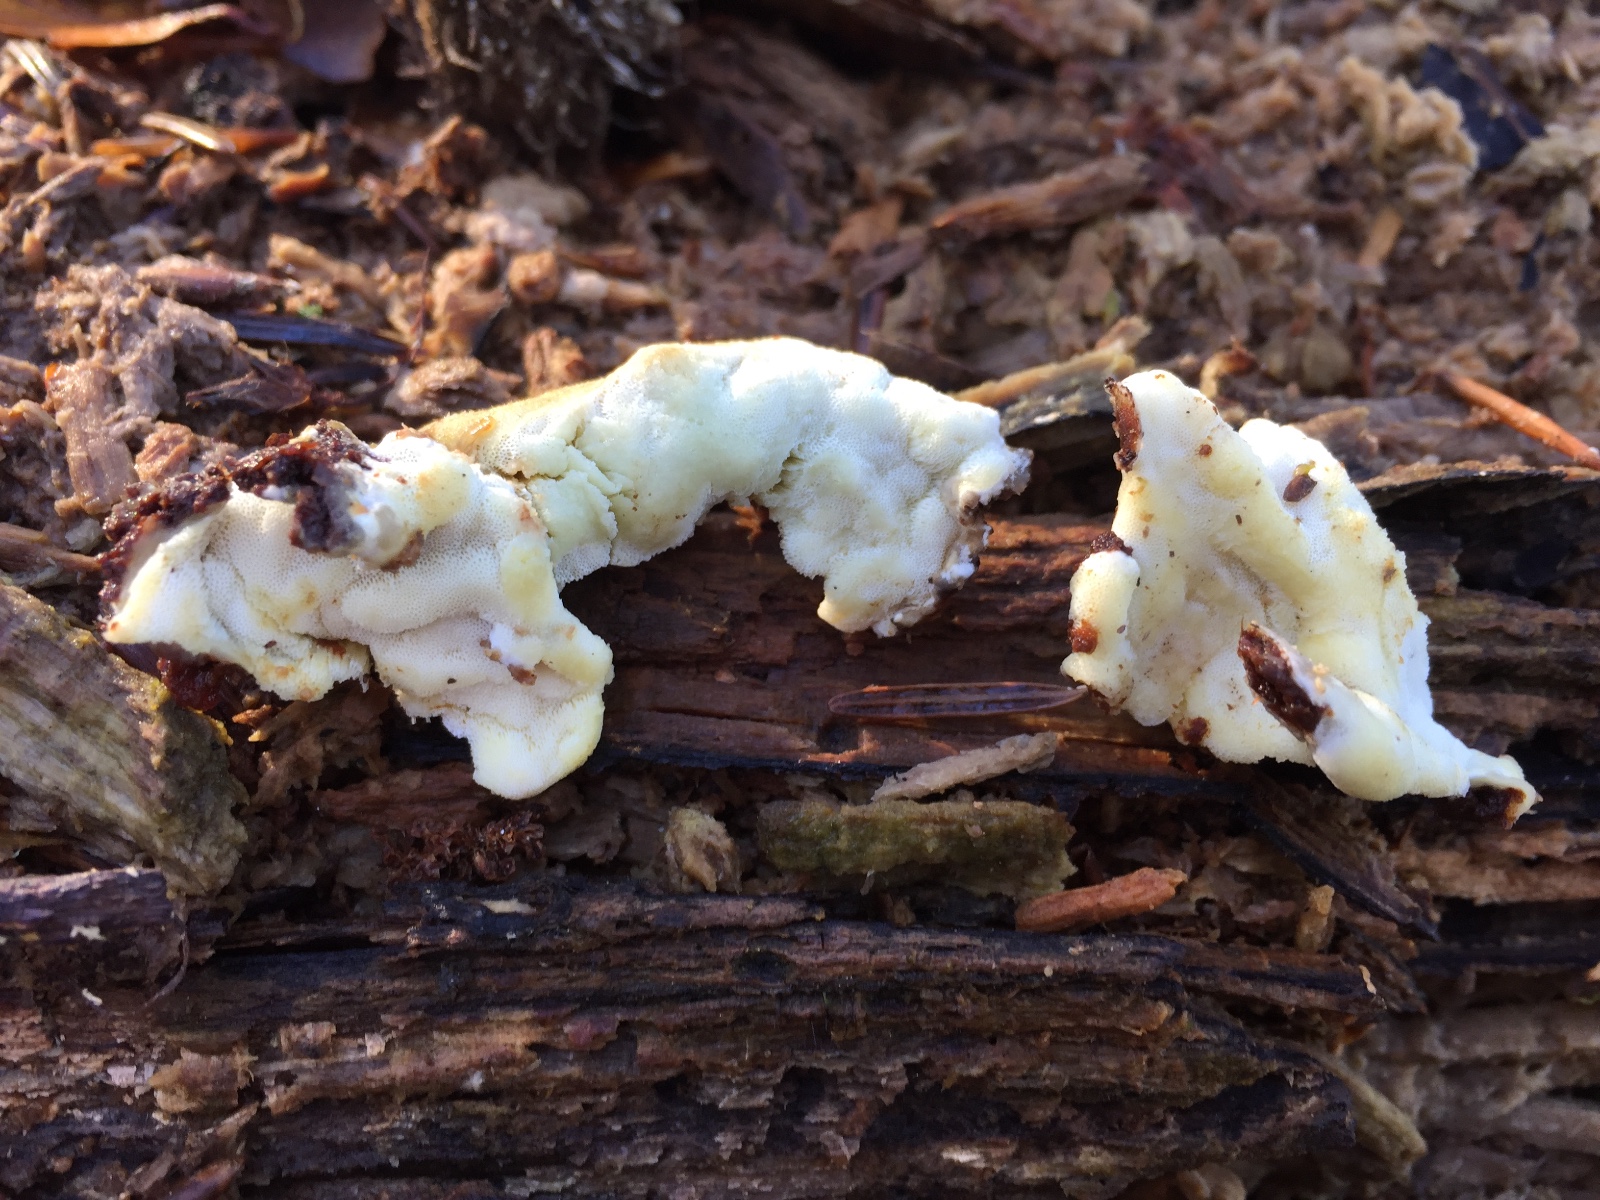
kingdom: Fungi
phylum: Basidiomycota
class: Agaricomycetes
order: Polyporales
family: Irpicaceae
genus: Gloeoporus
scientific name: Gloeoporus pannocinctus
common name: grøngul foldporesvamp
